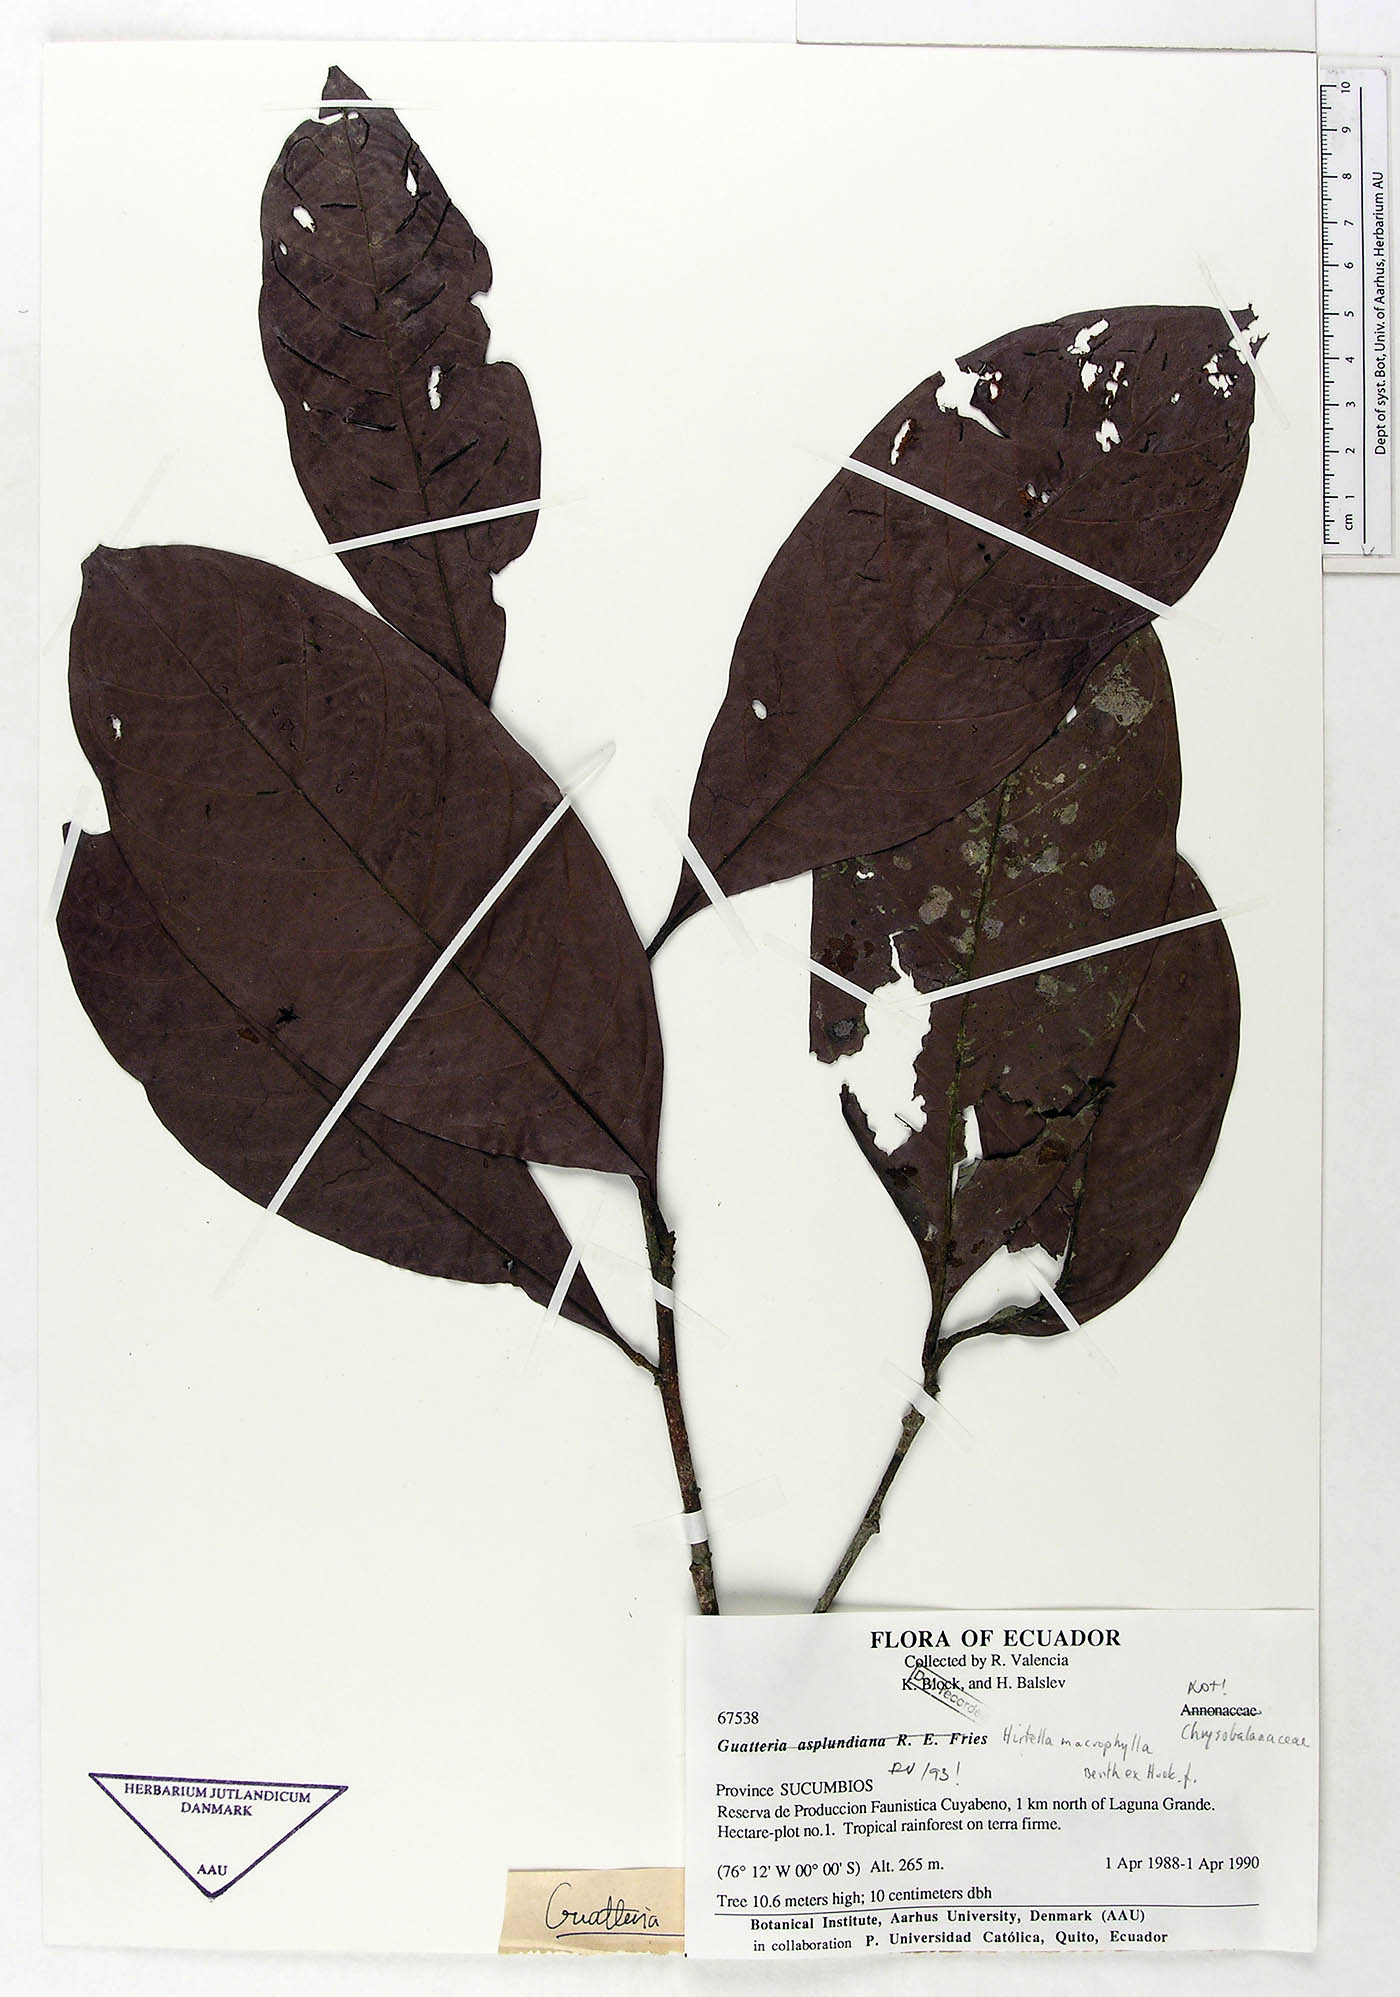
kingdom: Plantae
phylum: Tracheophyta
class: Magnoliopsida
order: Malpighiales
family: Chrysobalanaceae
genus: Hirtella
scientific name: Hirtella macrophylla
